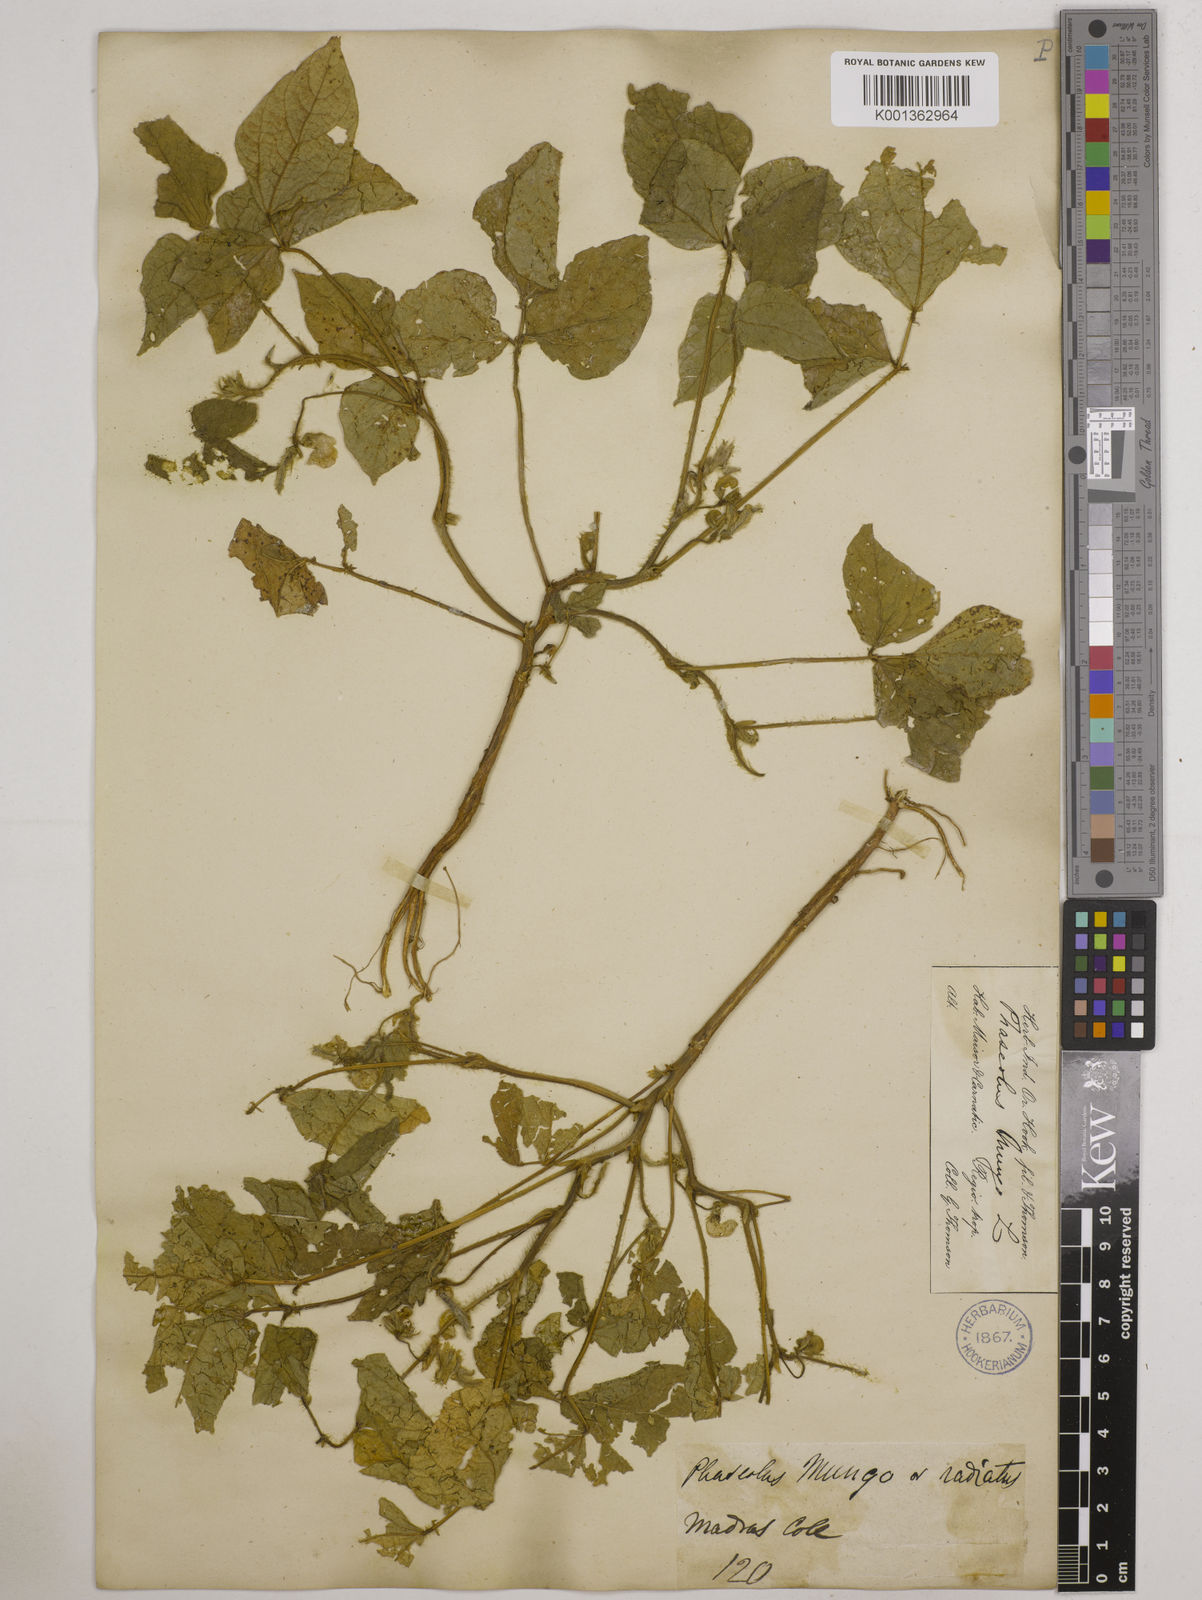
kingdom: Plantae
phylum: Tracheophyta
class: Magnoliopsida
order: Fabales
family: Fabaceae
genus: Vigna
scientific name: Vigna mungo
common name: Black gram
